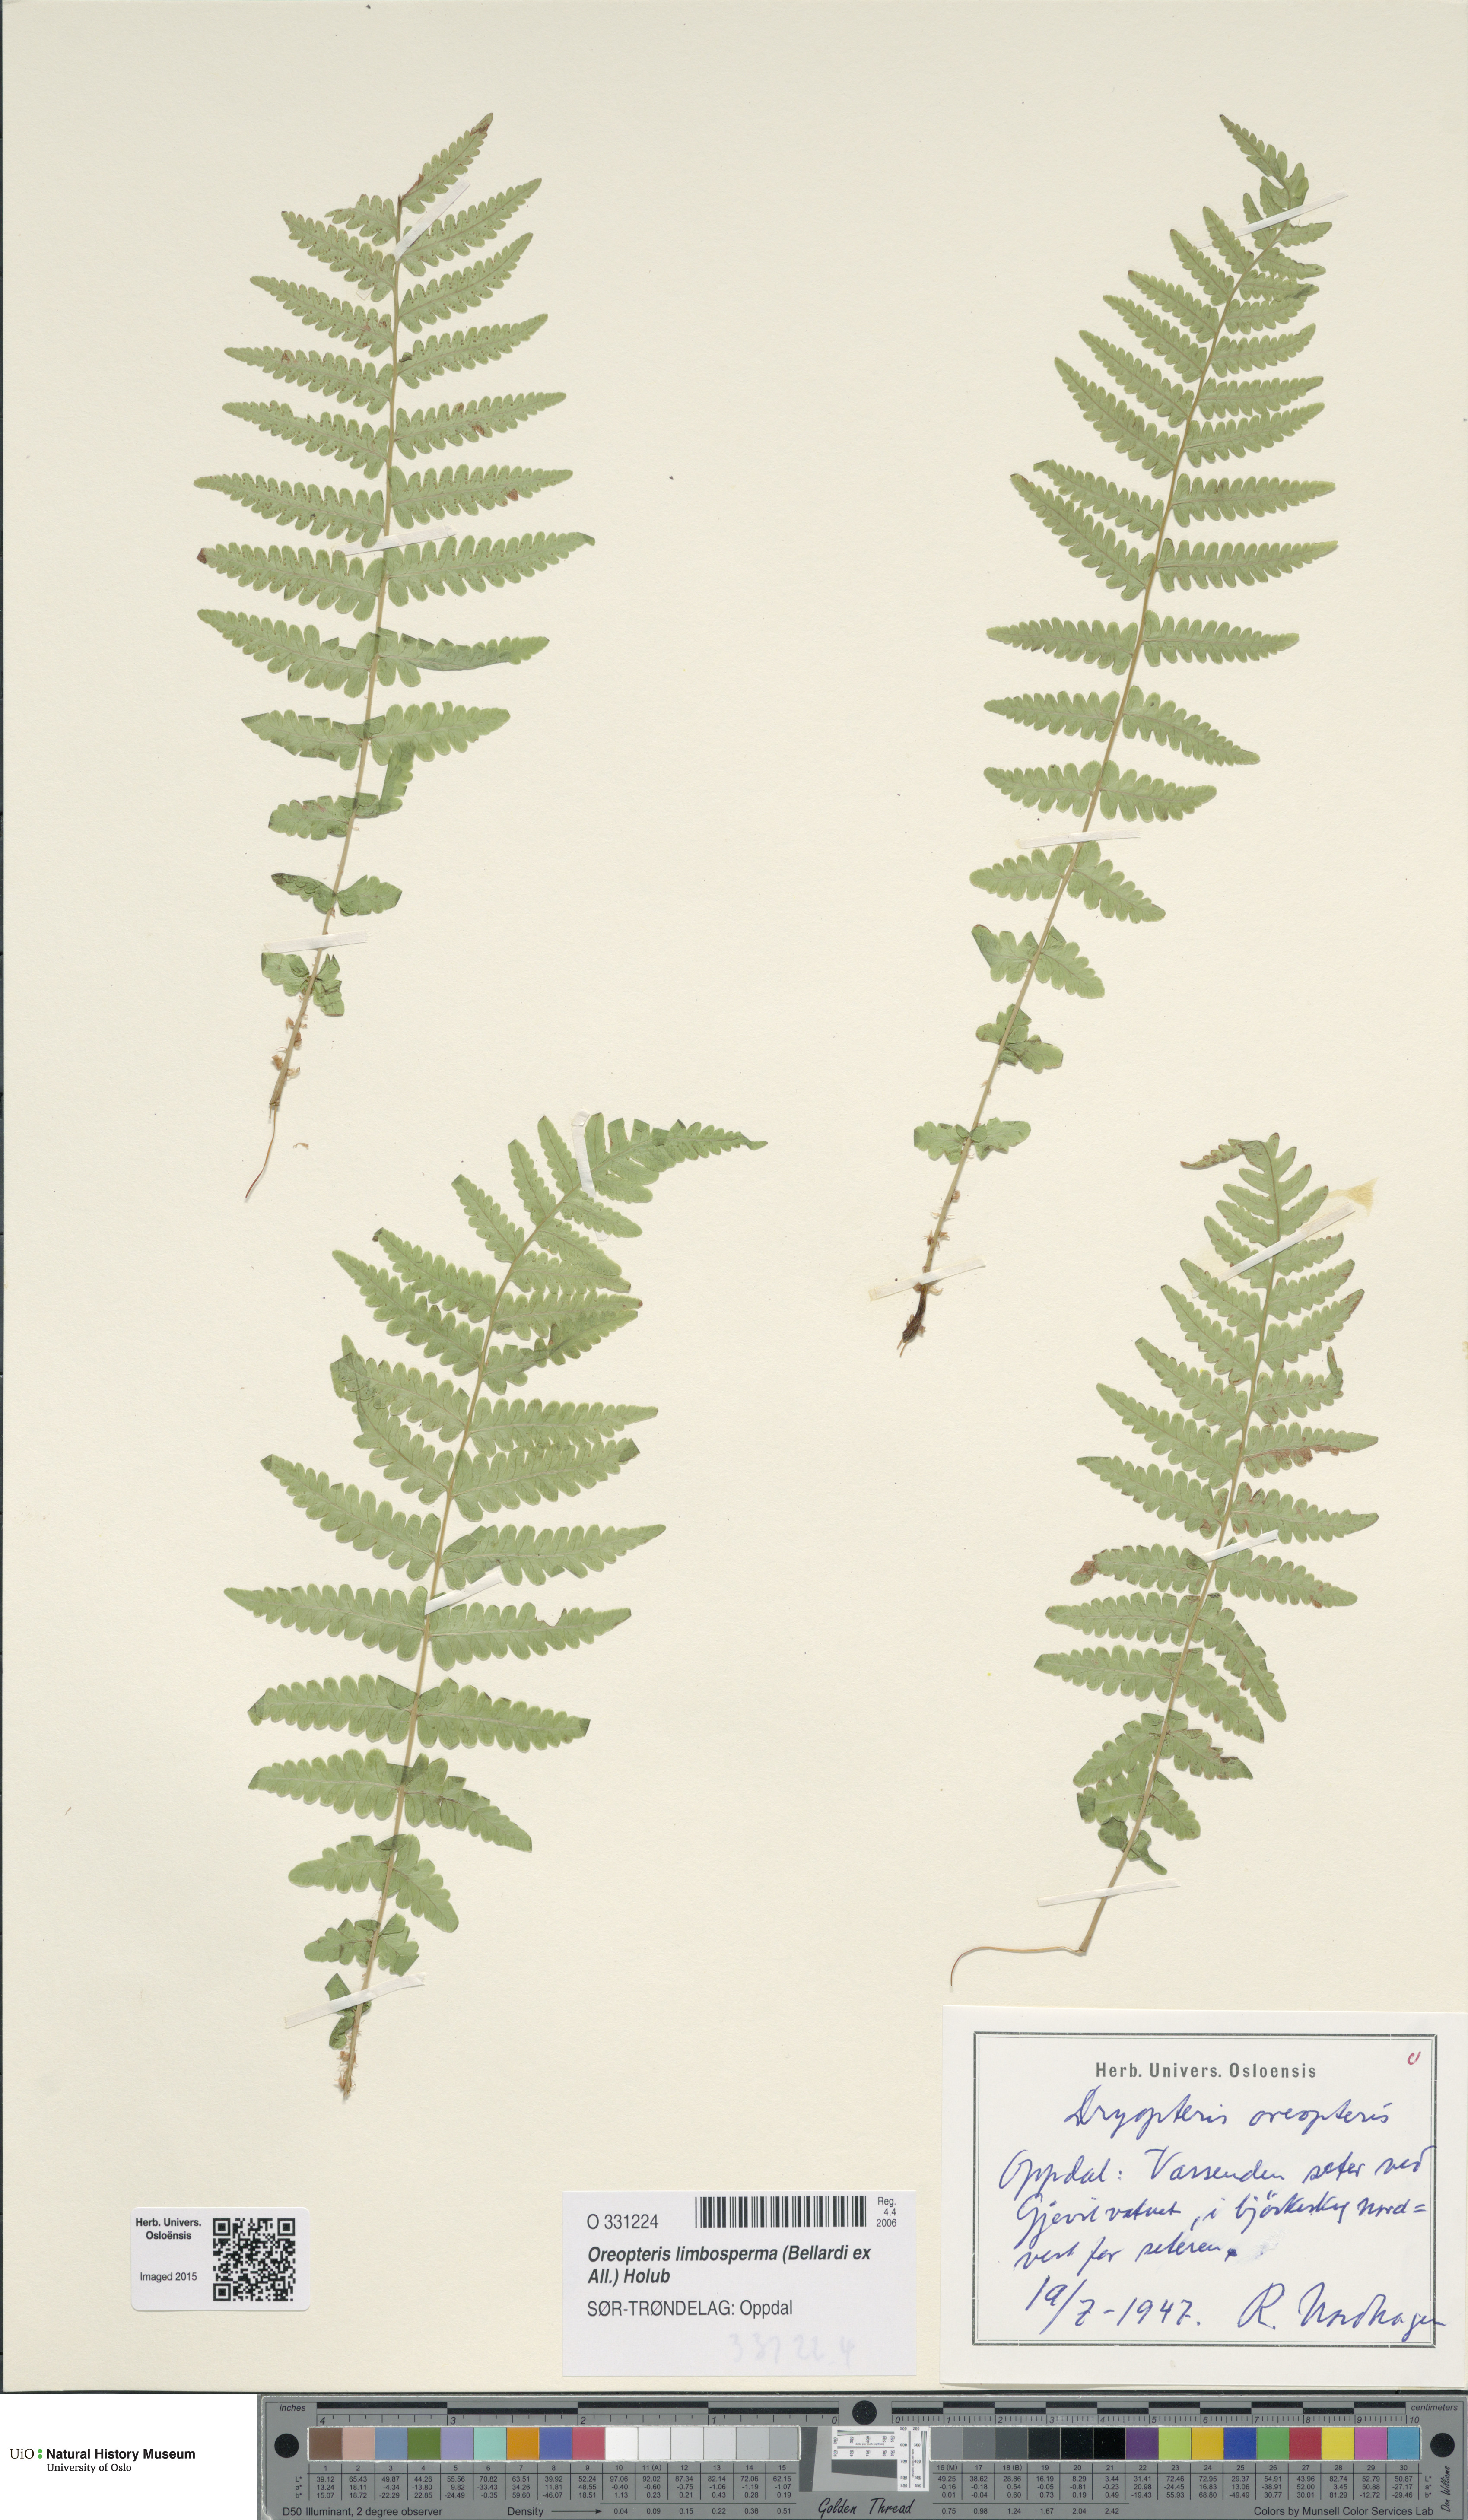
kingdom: Plantae
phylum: Tracheophyta
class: Polypodiopsida
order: Polypodiales
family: Thelypteridaceae
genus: Oreopteris
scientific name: Oreopteris limbosperma
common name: Lemon-scented fern
